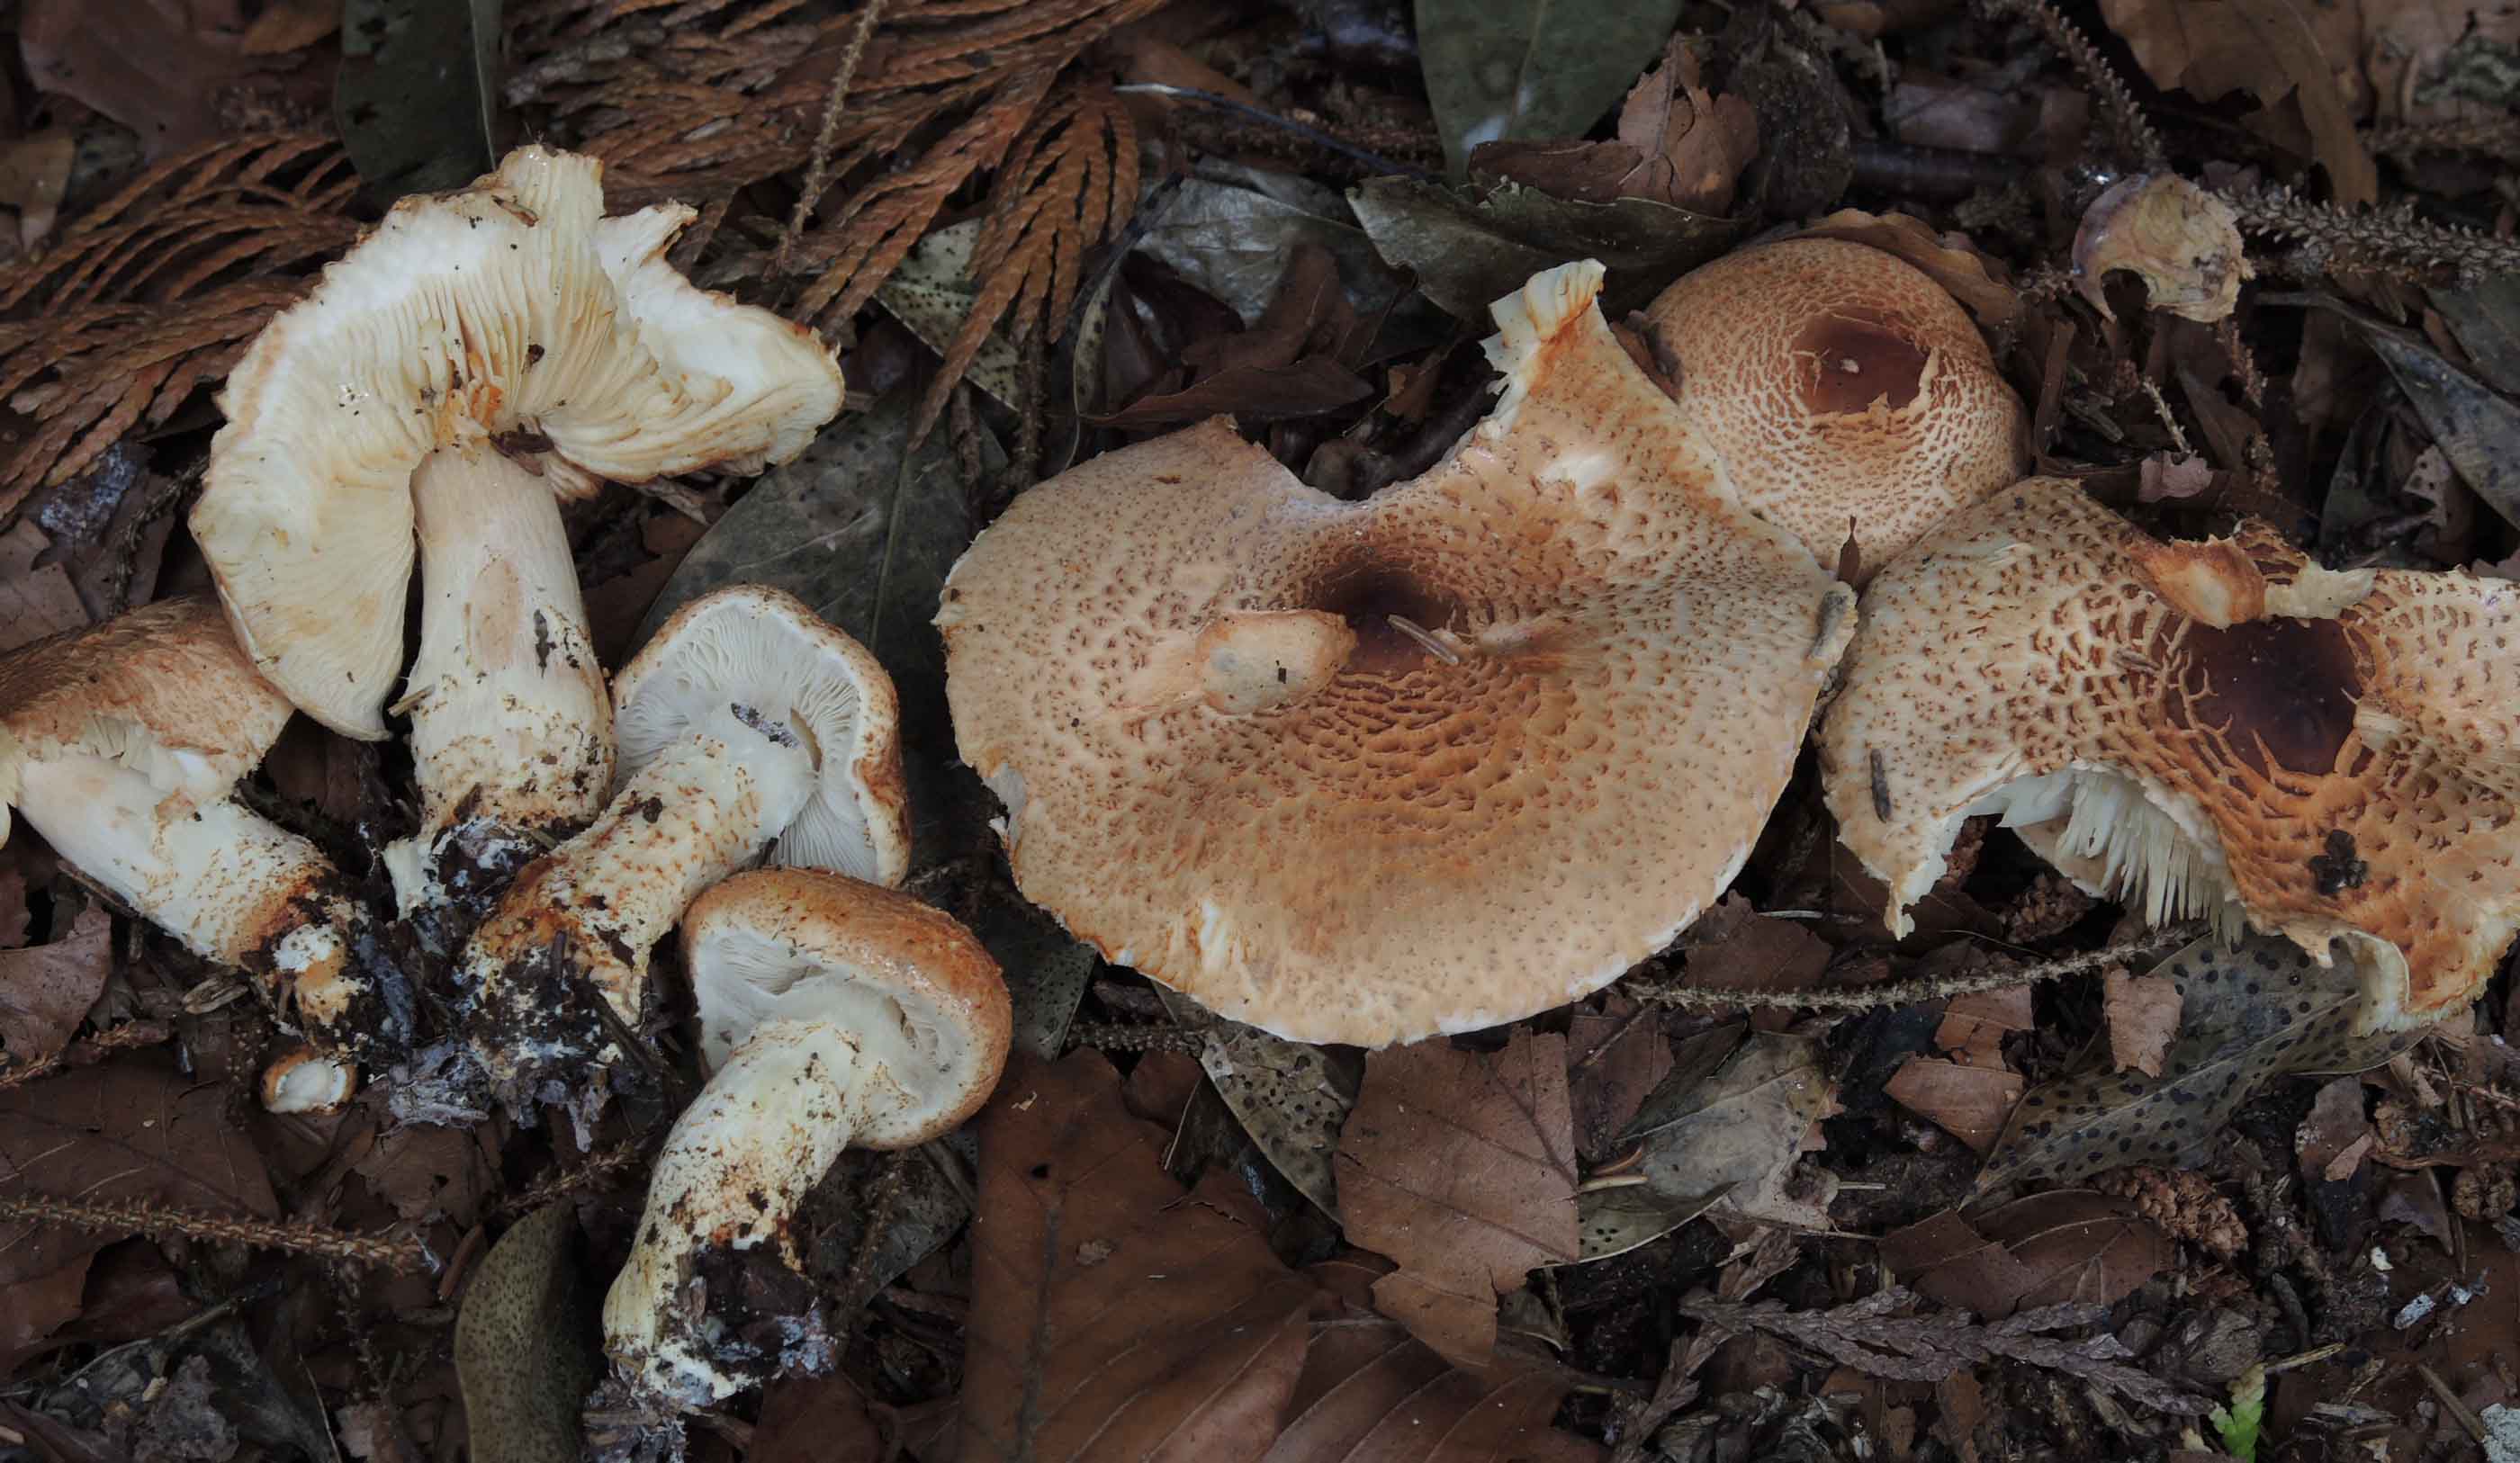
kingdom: Fungi
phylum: Basidiomycota
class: Agaricomycetes
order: Agaricales
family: Agaricaceae
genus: Lepiota
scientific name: Lepiota ochraceofulva
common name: sødtduftende parasolhat
